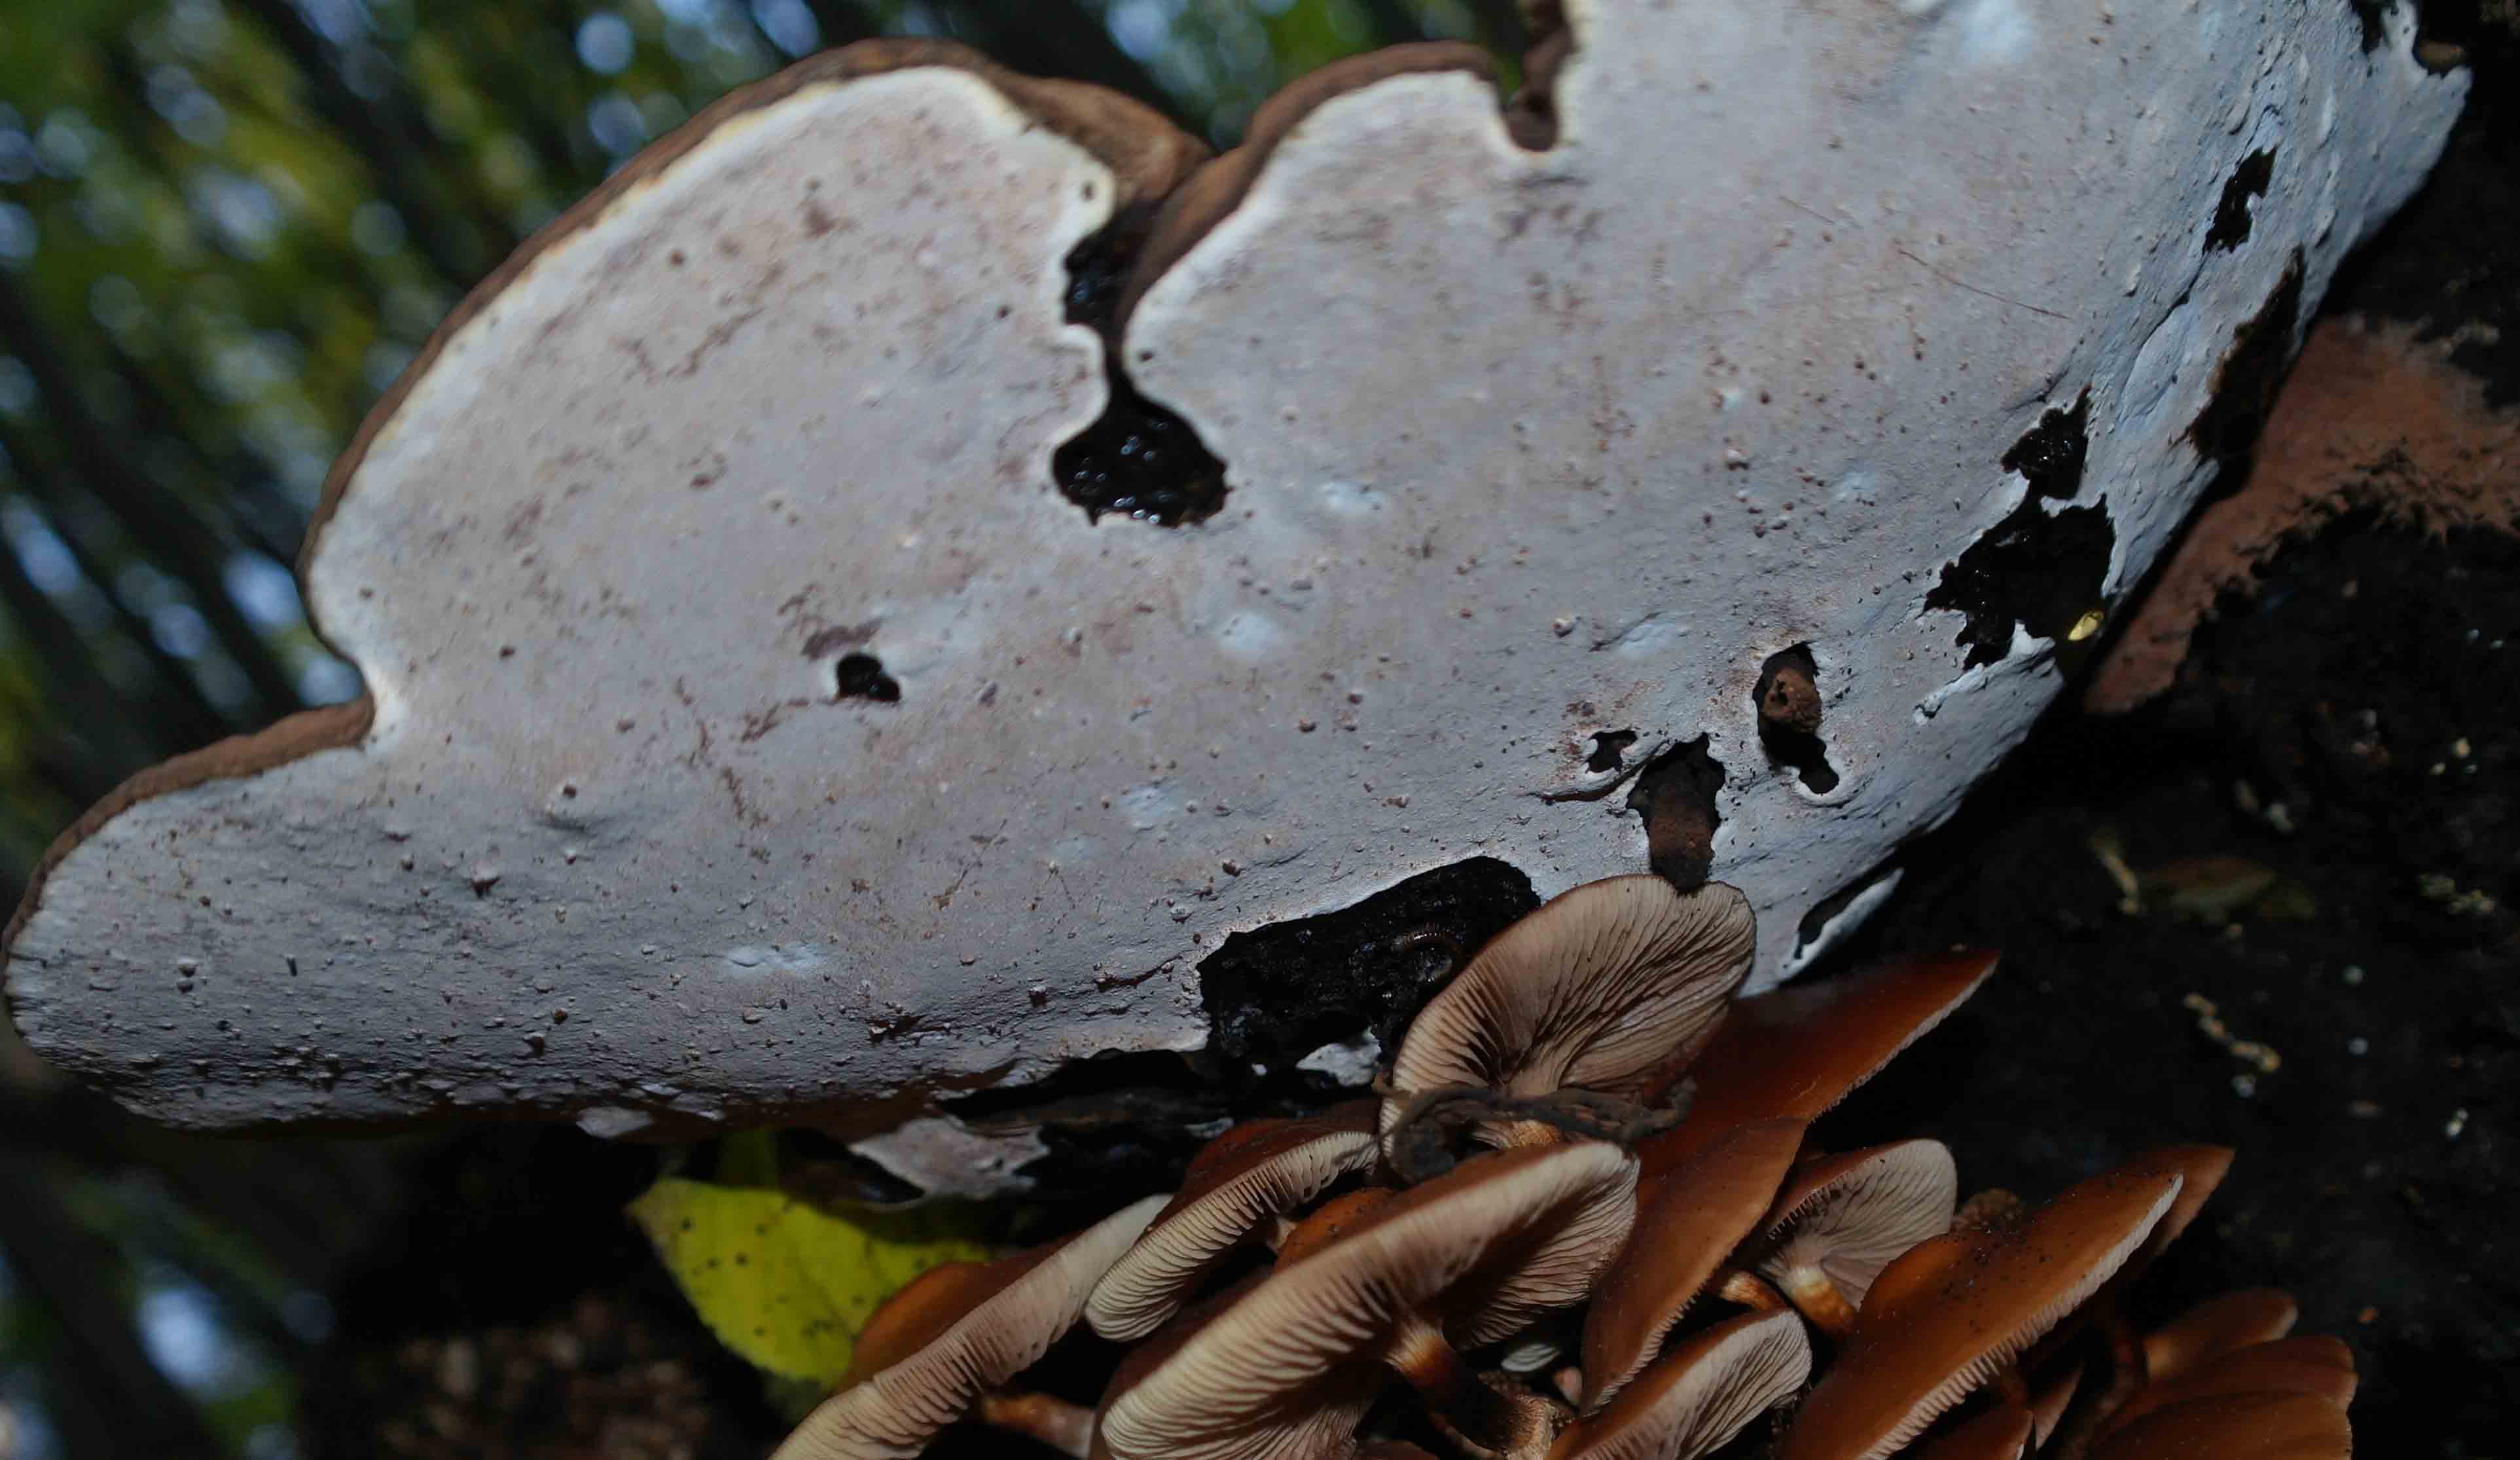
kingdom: Fungi
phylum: Basidiomycota
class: Agaricomycetes
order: Polyporales
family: Polyporaceae
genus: Ganoderma
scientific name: Ganoderma applanatum
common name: flad lakporesvamp
